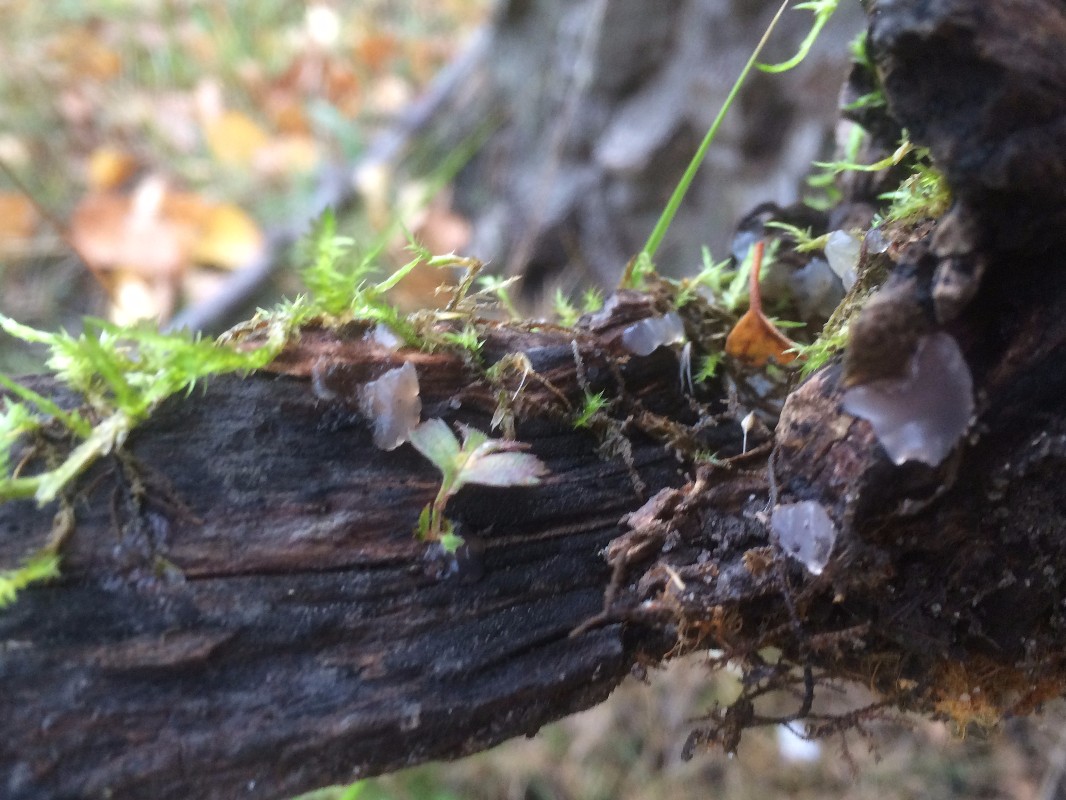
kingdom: Fungi
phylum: Basidiomycota
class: Agaricomycetes
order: Auriculariales
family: Hyaloriaceae
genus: Myxarium
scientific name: Myxarium nucleatum
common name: klar bævretop
